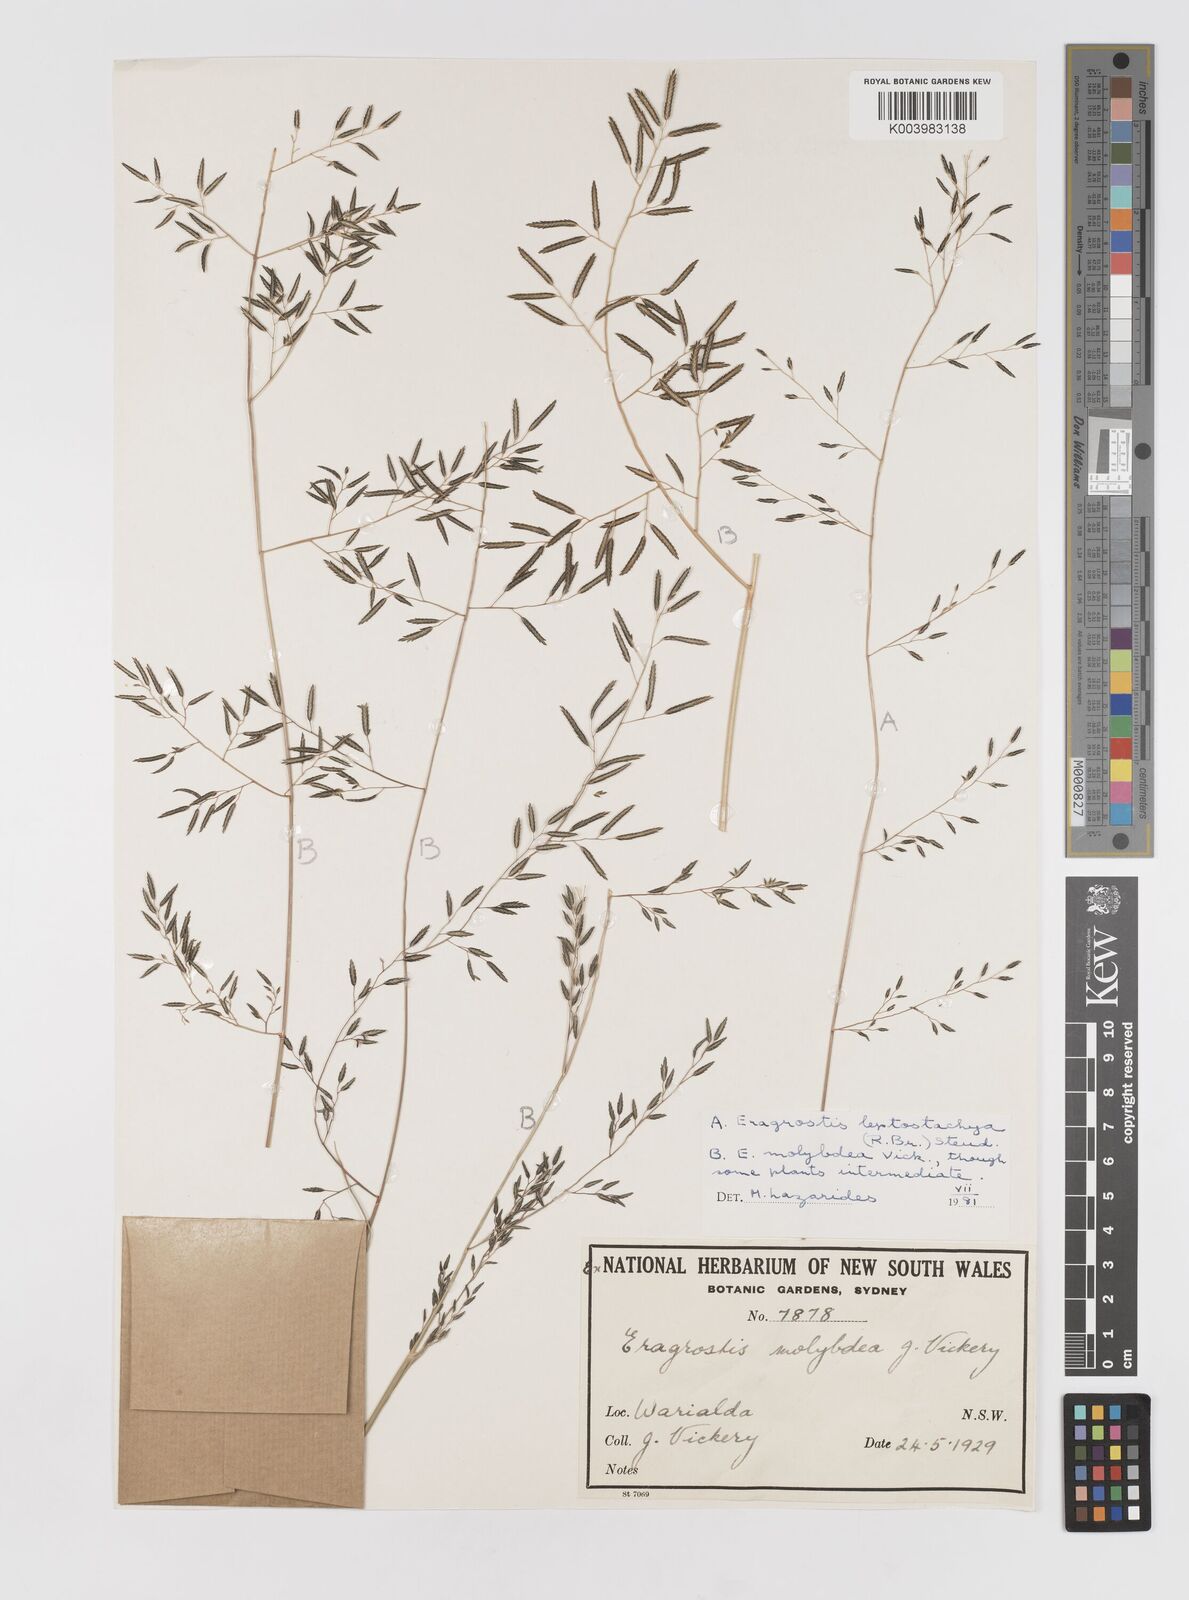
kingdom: Plantae
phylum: Tracheophyta
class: Liliopsida
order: Poales
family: Poaceae
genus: Eragrostis
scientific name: Eragrostis leptostachya
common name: Australian lovegrass
